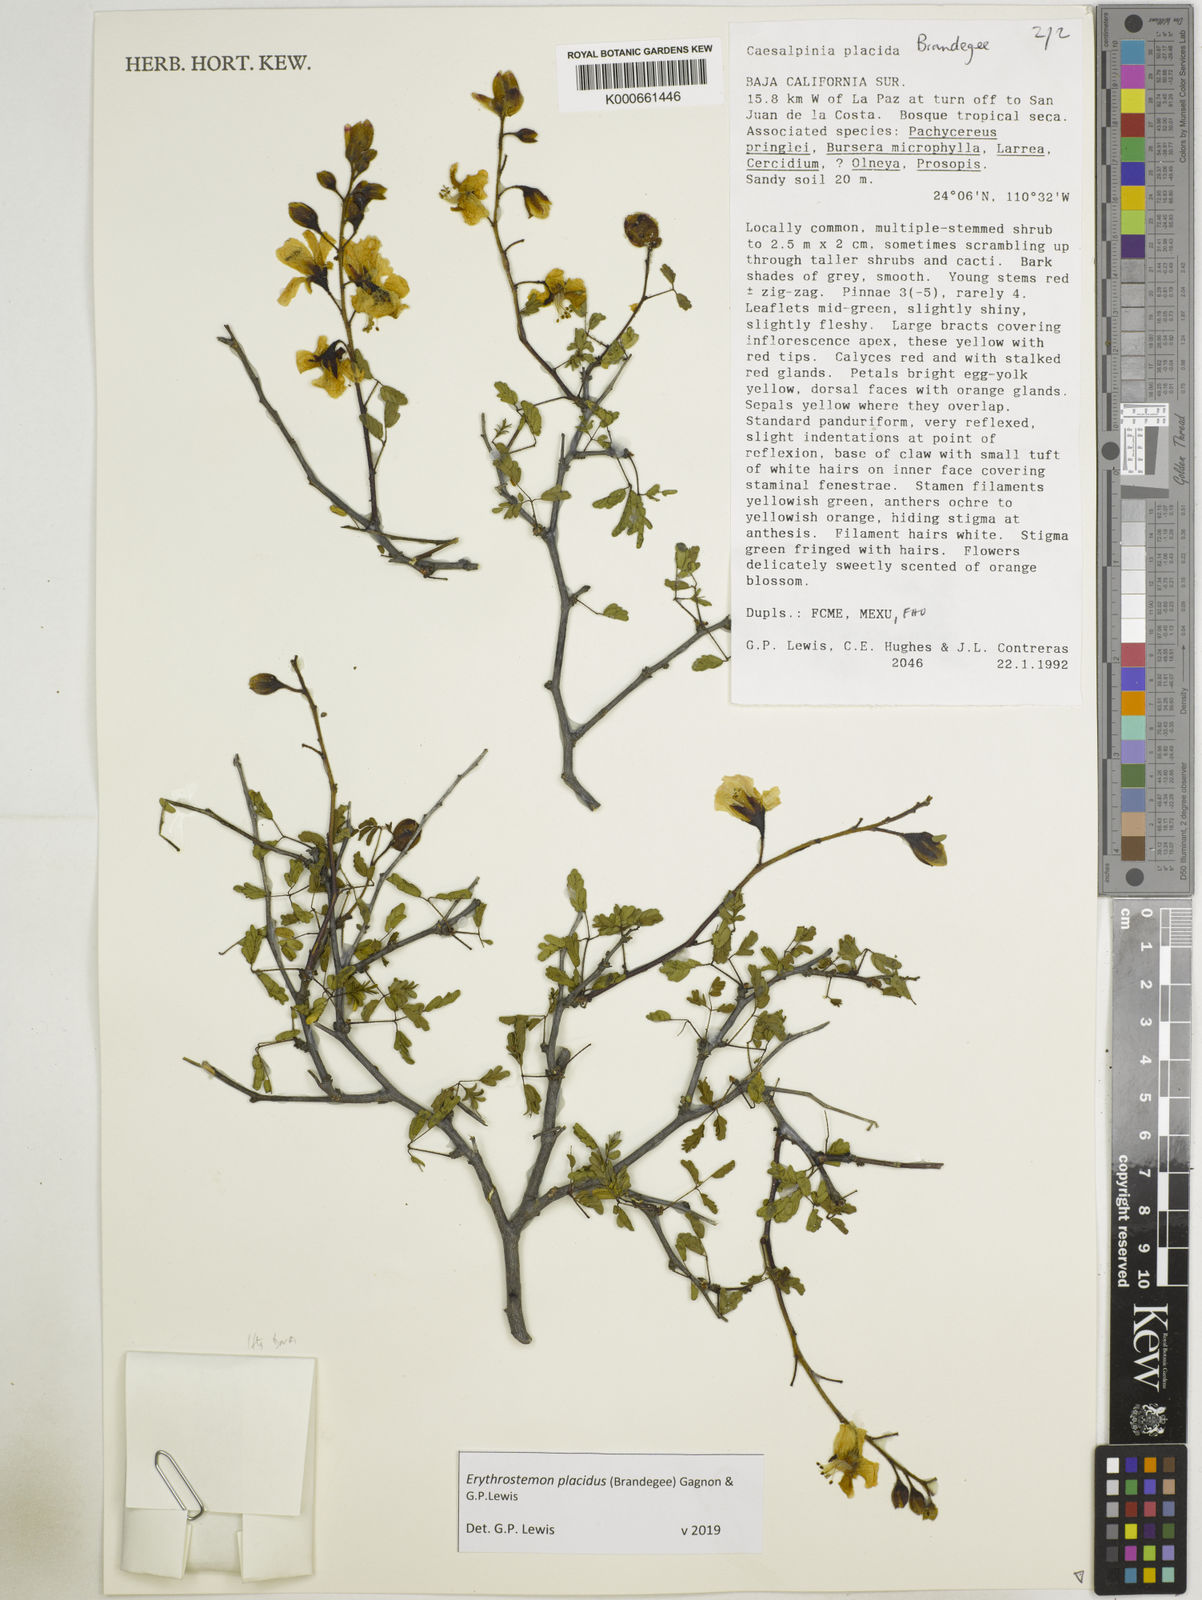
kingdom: Plantae
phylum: Tracheophyta
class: Magnoliopsida
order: Fabales
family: Fabaceae
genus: Erythrostemon
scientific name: Erythrostemon placidus
